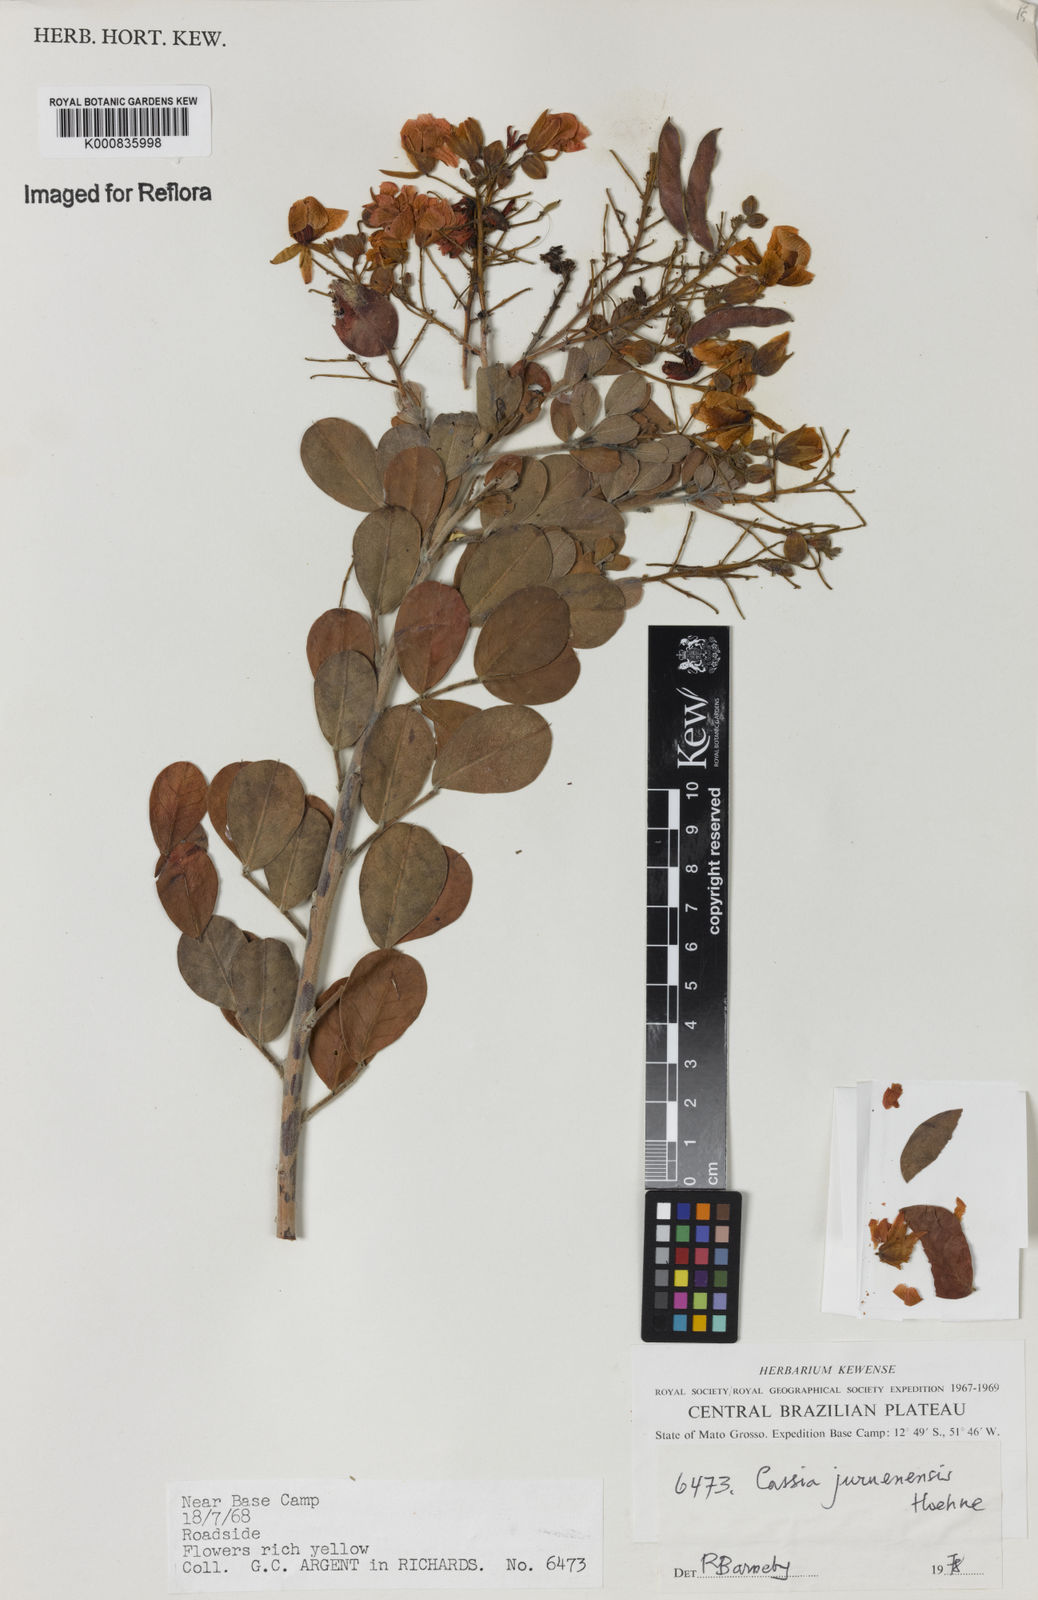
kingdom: Plantae
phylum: Tracheophyta
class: Magnoliopsida
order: Fabales
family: Fabaceae
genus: Chamaecrista
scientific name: Chamaecrista juruenensis
